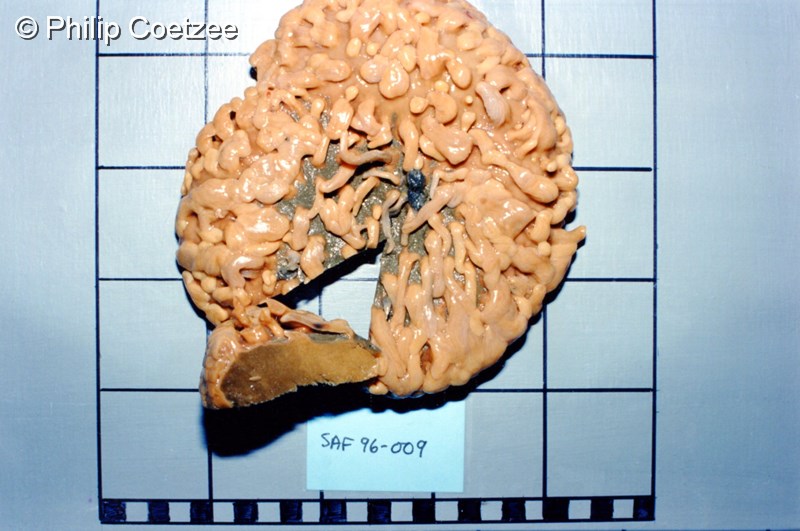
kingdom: Animalia
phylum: Porifera
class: Demospongiae
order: Polymastiida
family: Polymastiidae
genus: Proteleia
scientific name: Proteleia sollasi
